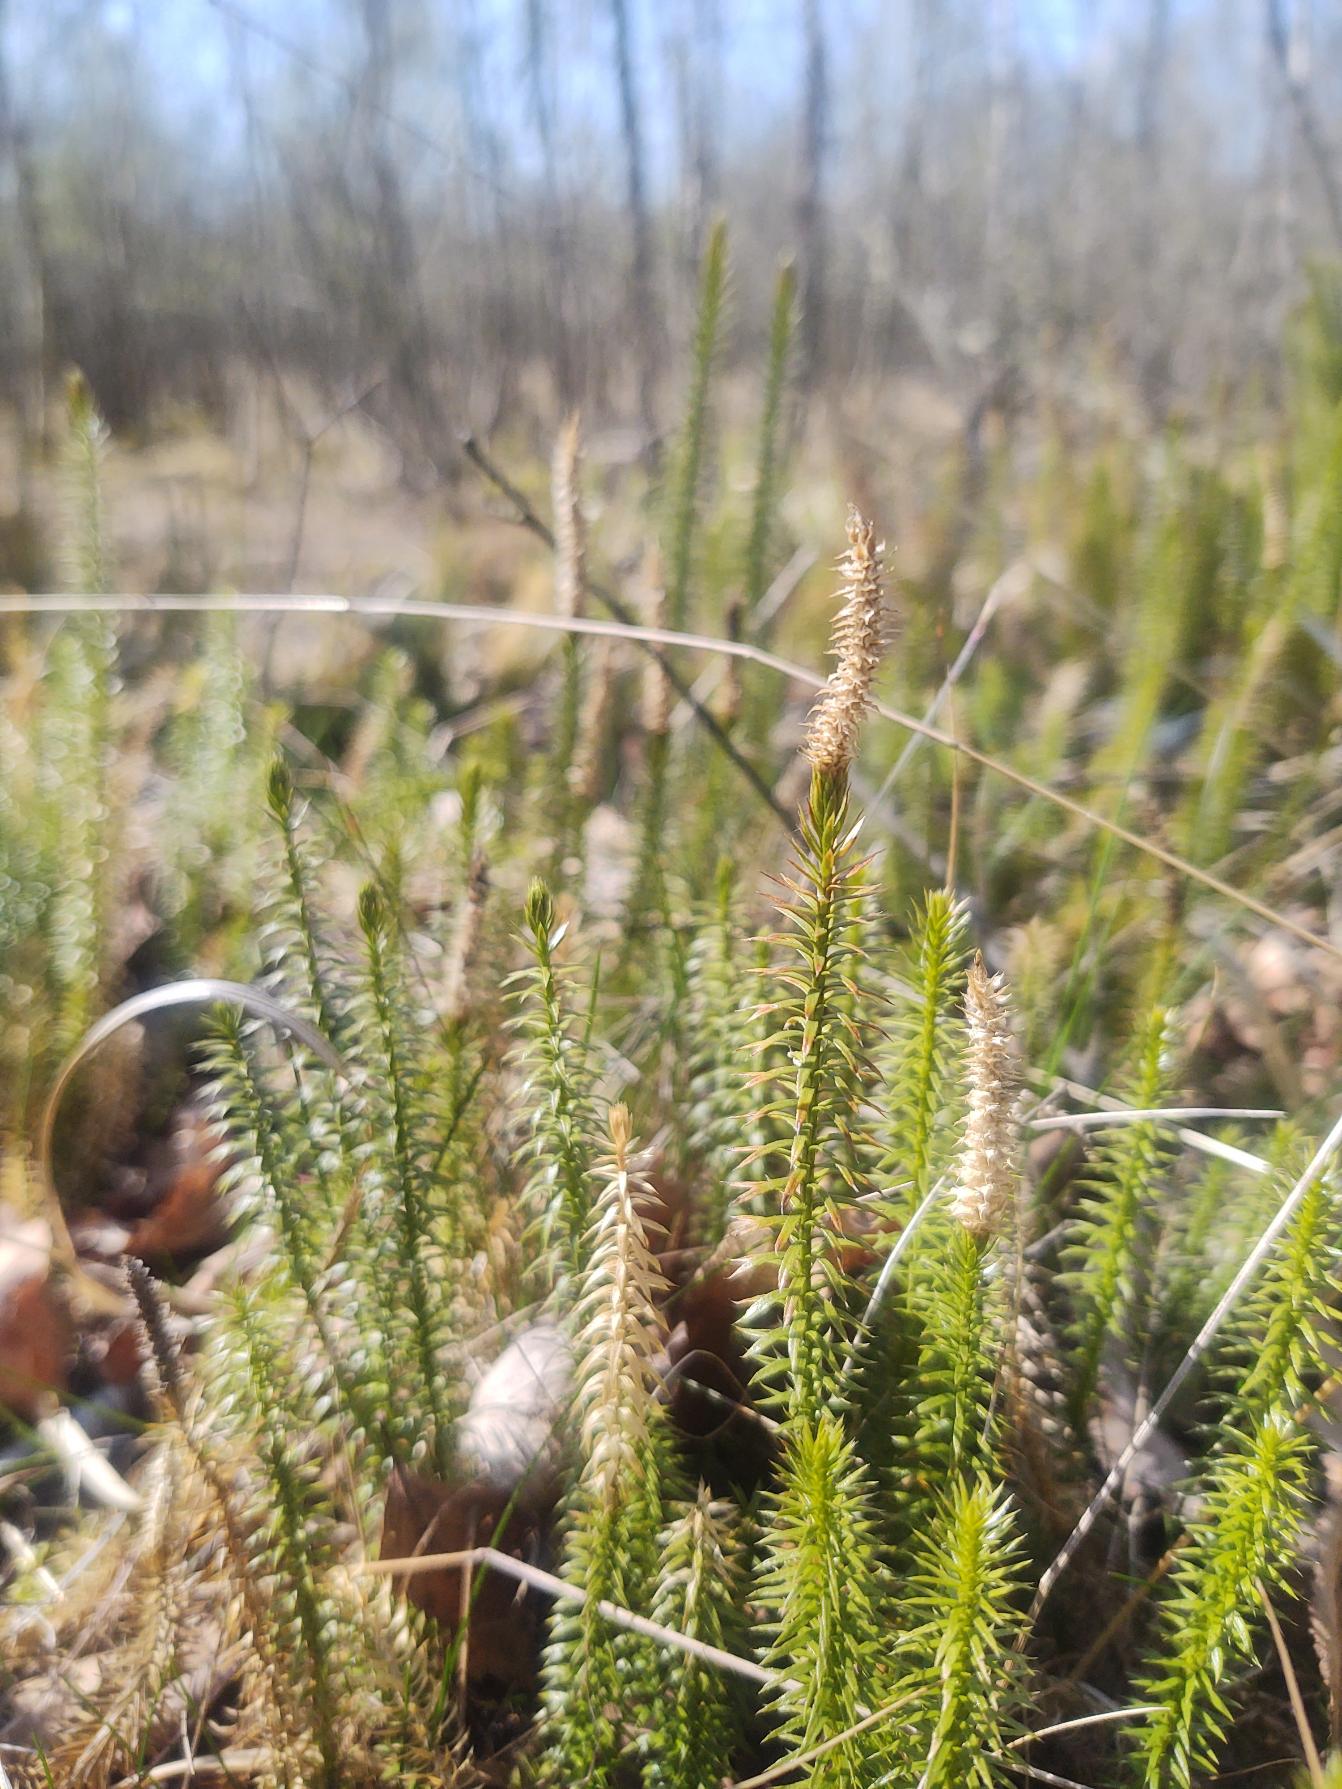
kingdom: Plantae
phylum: Tracheophyta
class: Lycopodiopsida
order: Lycopodiales
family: Lycopodiaceae
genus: Spinulum
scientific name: Spinulum annotinum
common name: Femradet ulvefod
